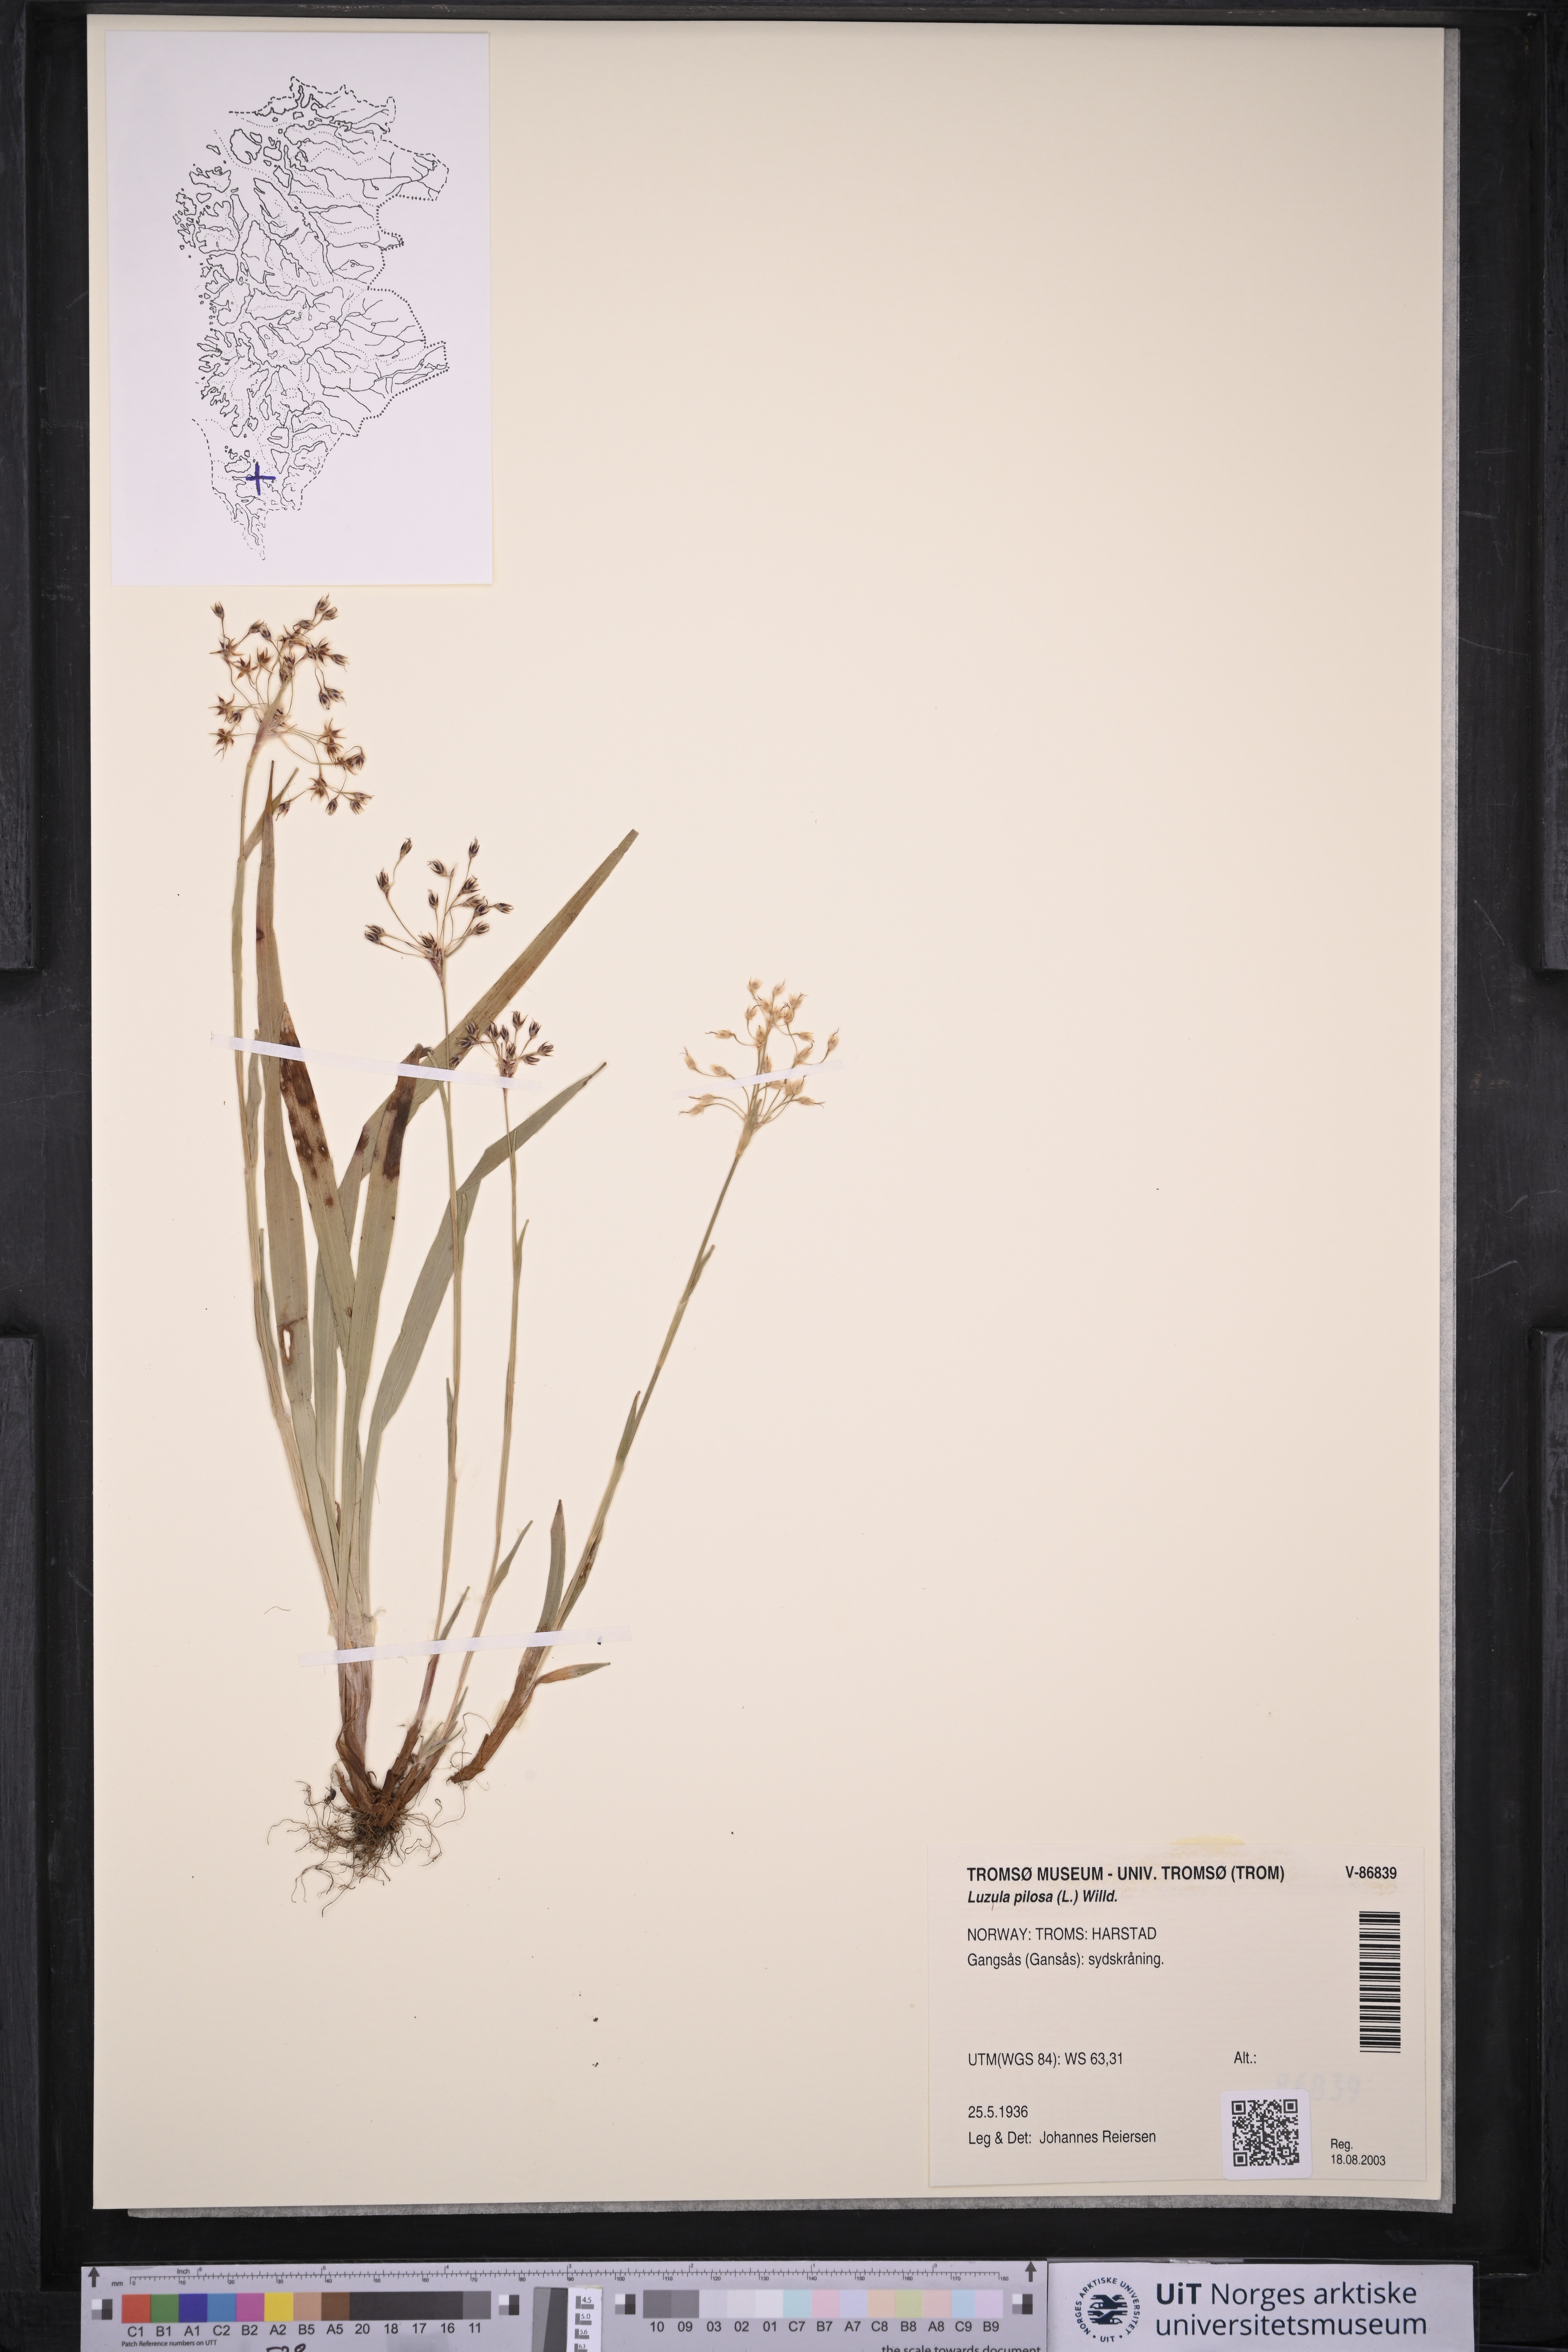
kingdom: Plantae
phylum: Tracheophyta
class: Liliopsida
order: Poales
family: Juncaceae
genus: Luzula
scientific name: Luzula pilosa
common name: Hairy wood-rush
